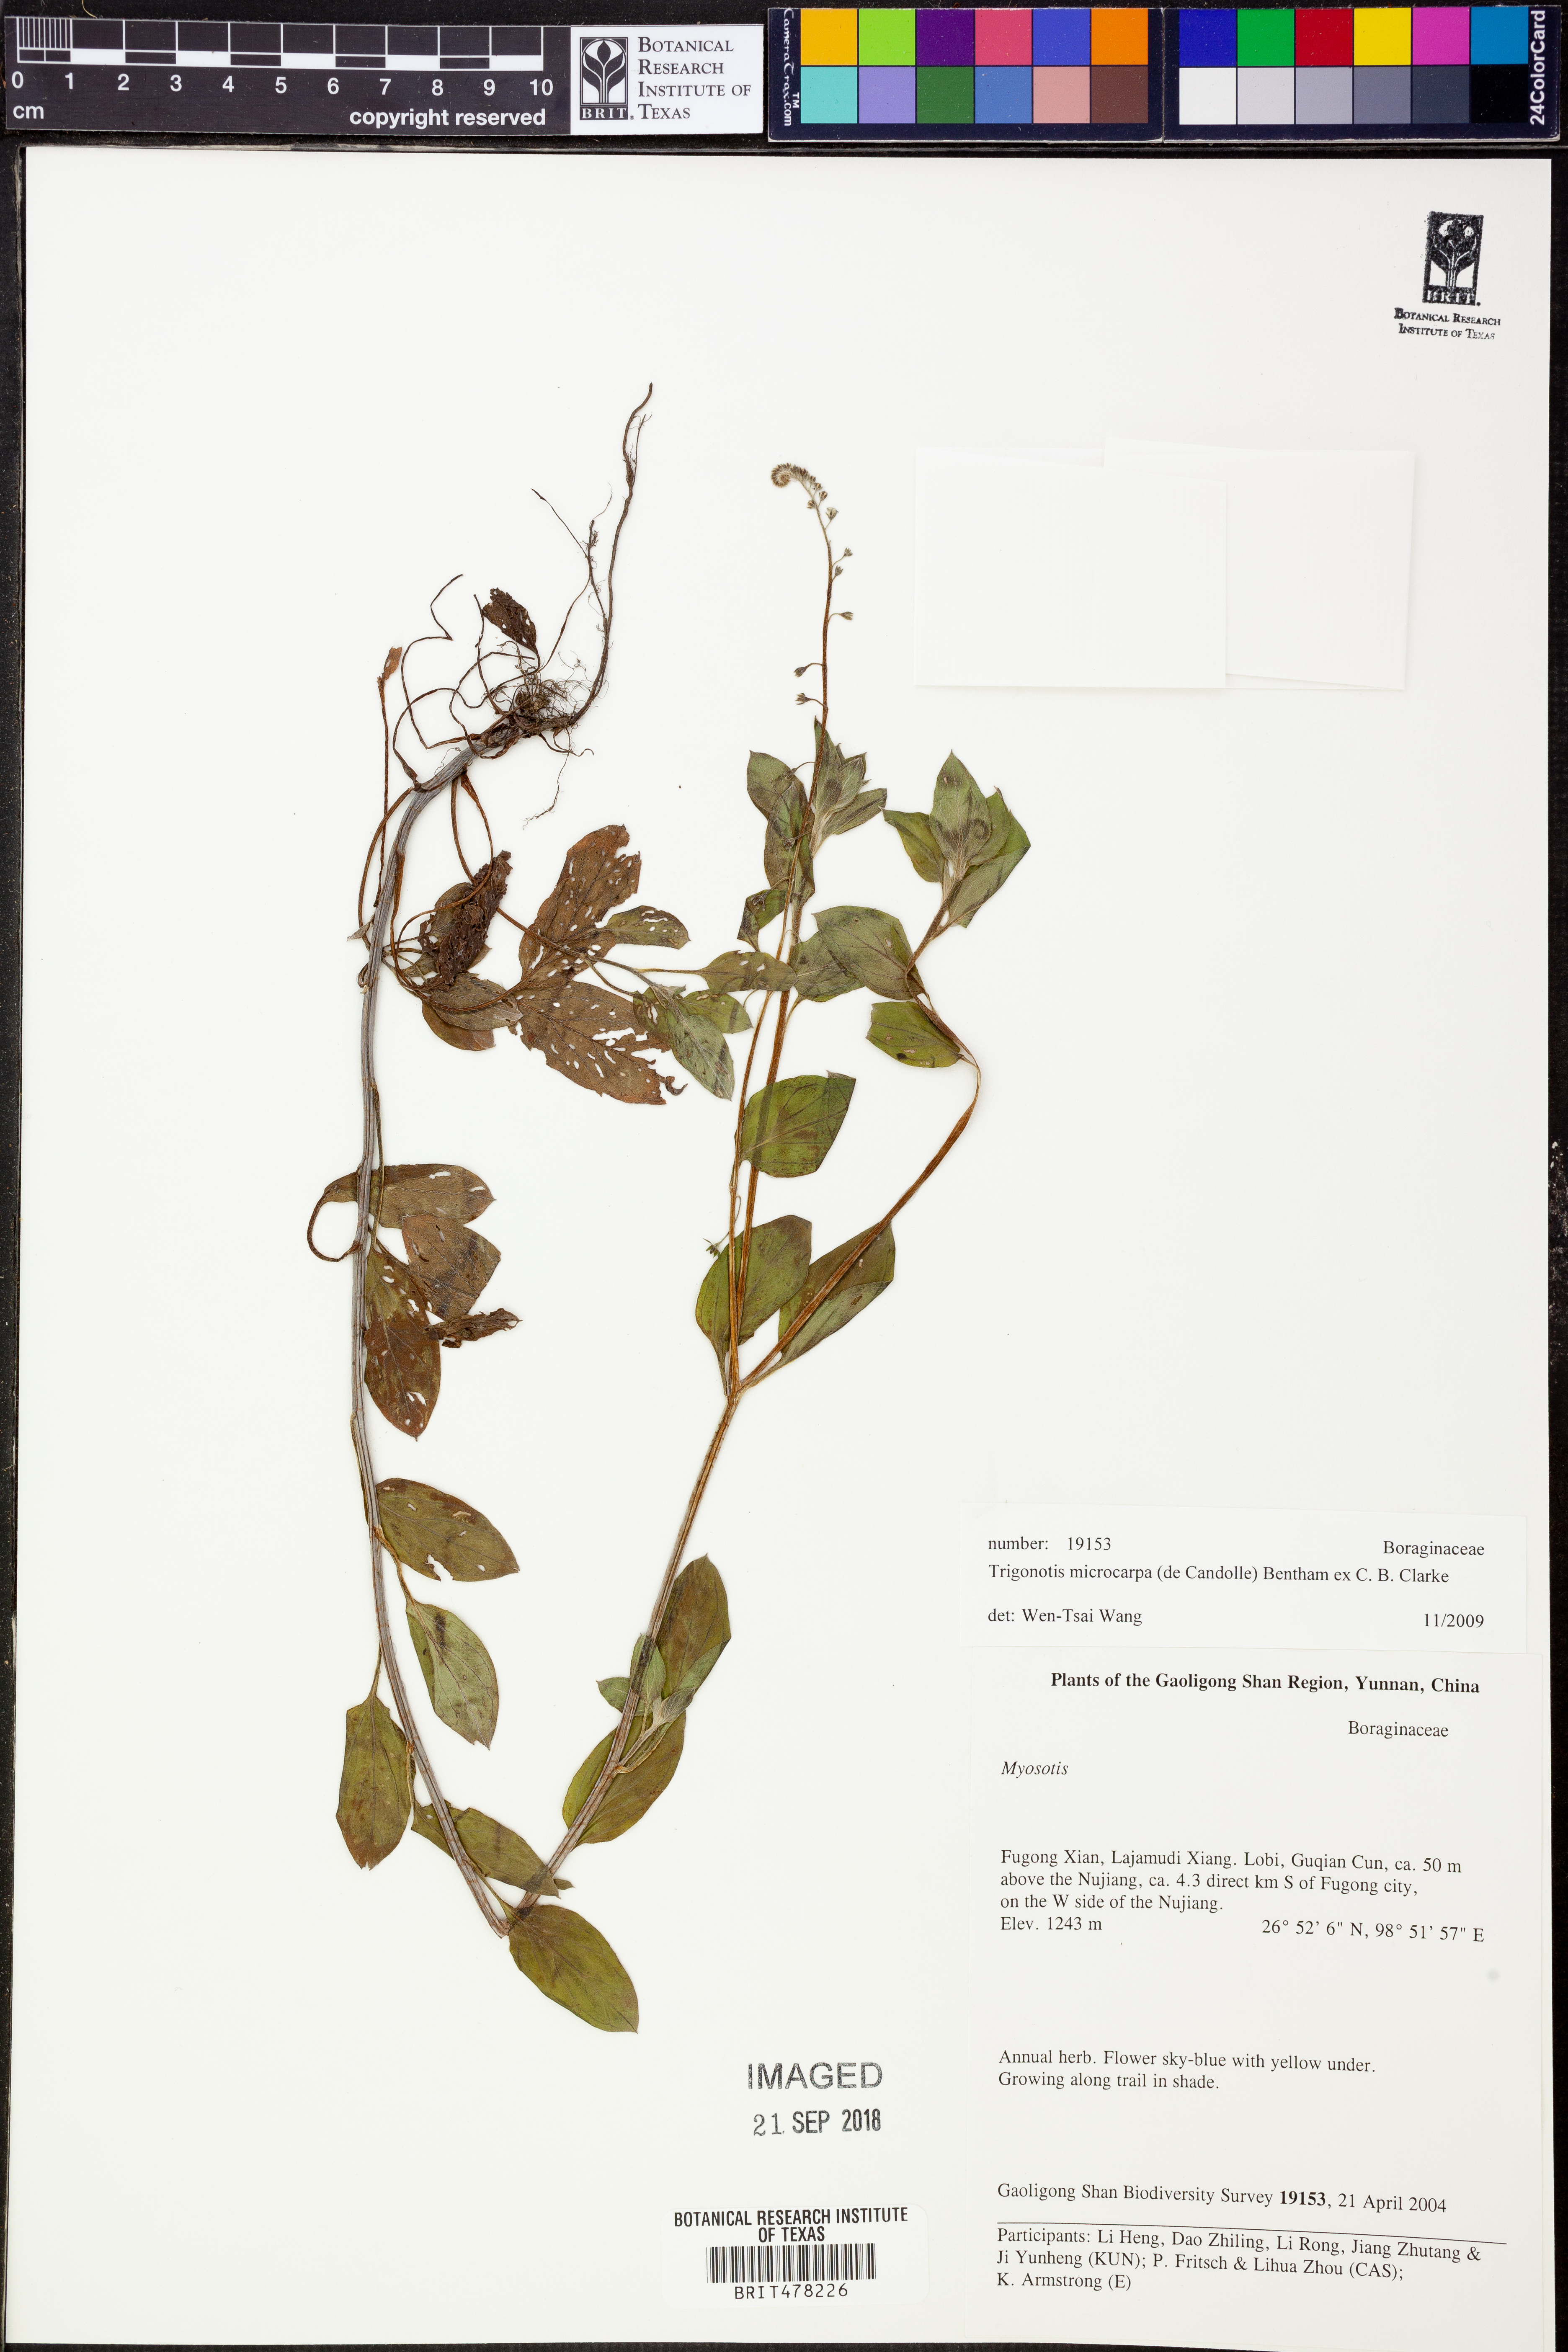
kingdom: Plantae
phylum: Tracheophyta
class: Magnoliopsida
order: Boraginales
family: Boraginaceae
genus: Trigonotis
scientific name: Trigonotis microcarpa
